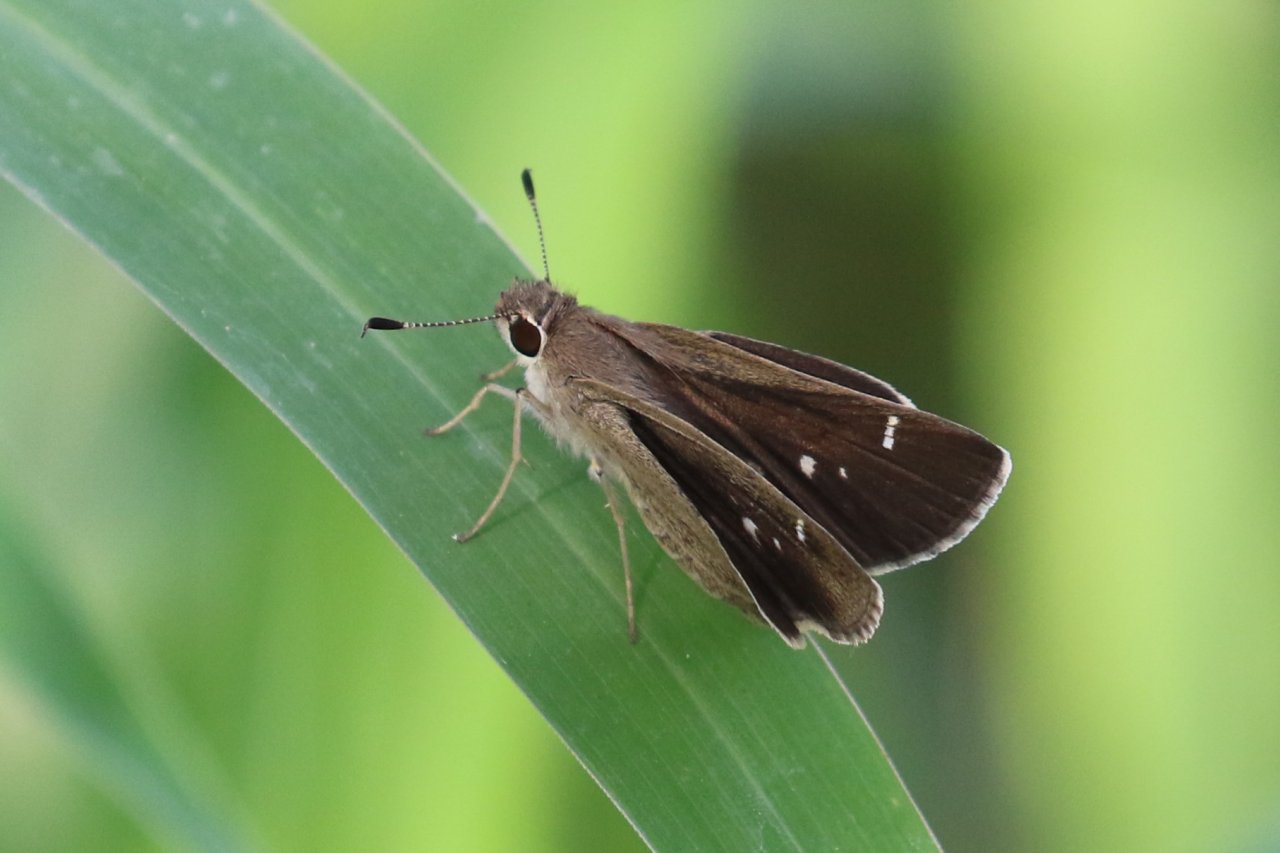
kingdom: Animalia
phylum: Arthropoda
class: Insecta
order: Lepidoptera
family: Hesperiidae
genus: Lerodea
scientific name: Lerodea arabus
